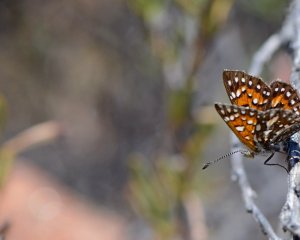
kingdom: Animalia
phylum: Arthropoda
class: Insecta
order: Lepidoptera
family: Riodinidae
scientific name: Riodinidae
